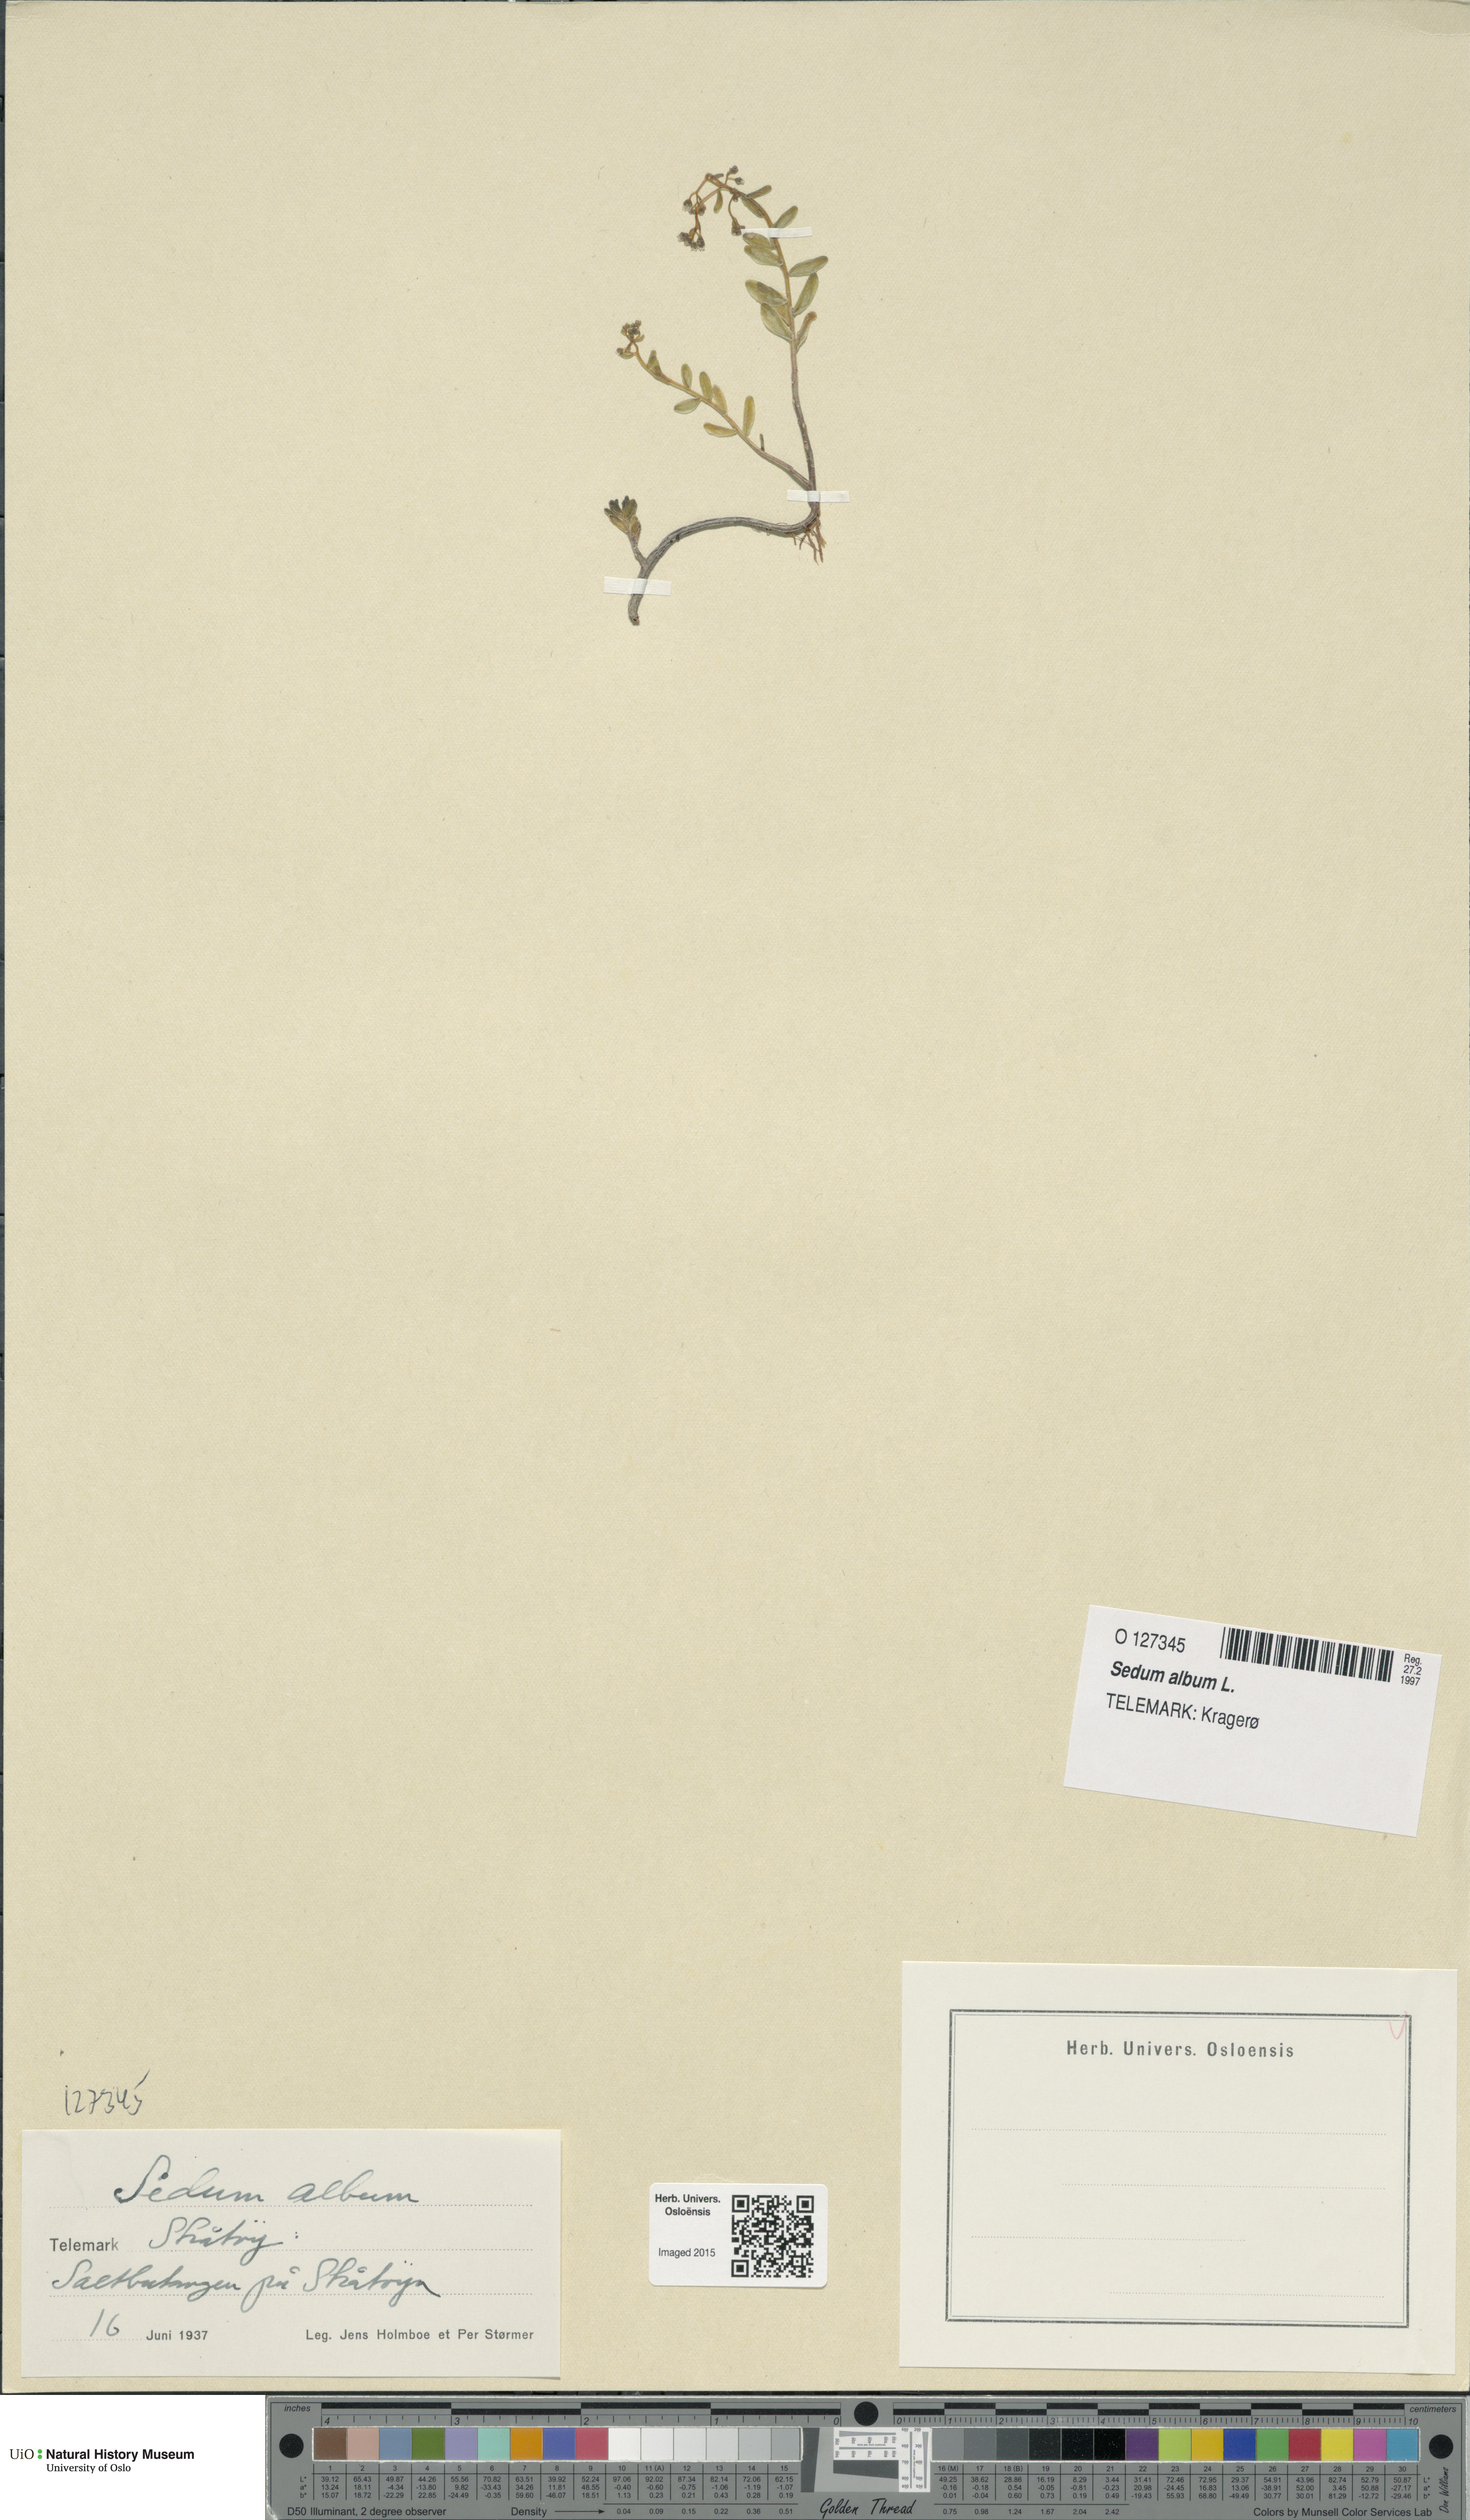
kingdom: Plantae
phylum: Tracheophyta
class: Magnoliopsida
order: Saxifragales
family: Crassulaceae
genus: Sedum
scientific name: Sedum album
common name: White stonecrop
